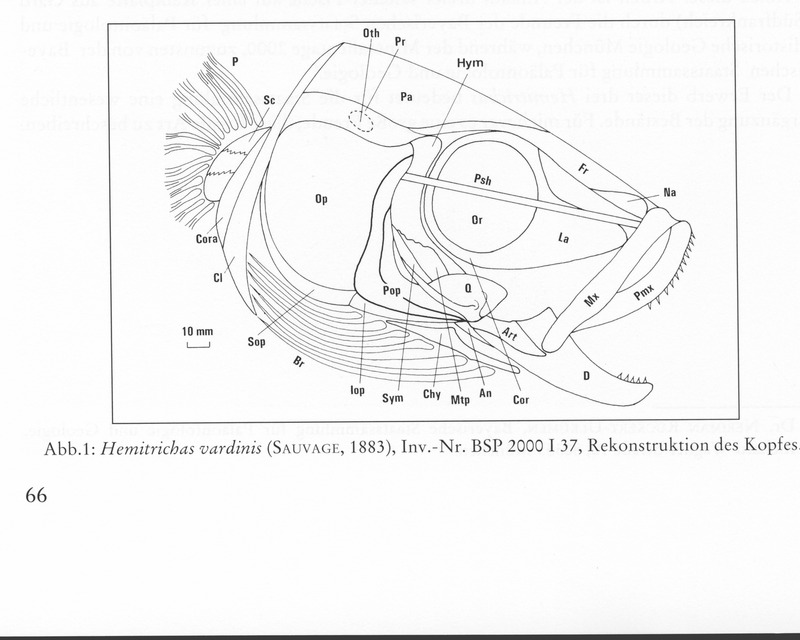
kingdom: Animalia
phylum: Chordata
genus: Hemitrichas
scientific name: Hemitrichas
